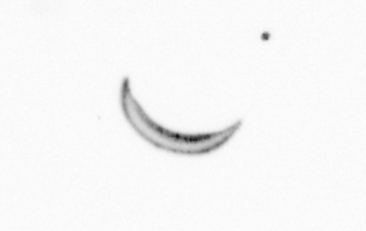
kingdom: Chromista
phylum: Ochrophyta
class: Bacillariophyceae
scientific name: Bacillariophyceae
